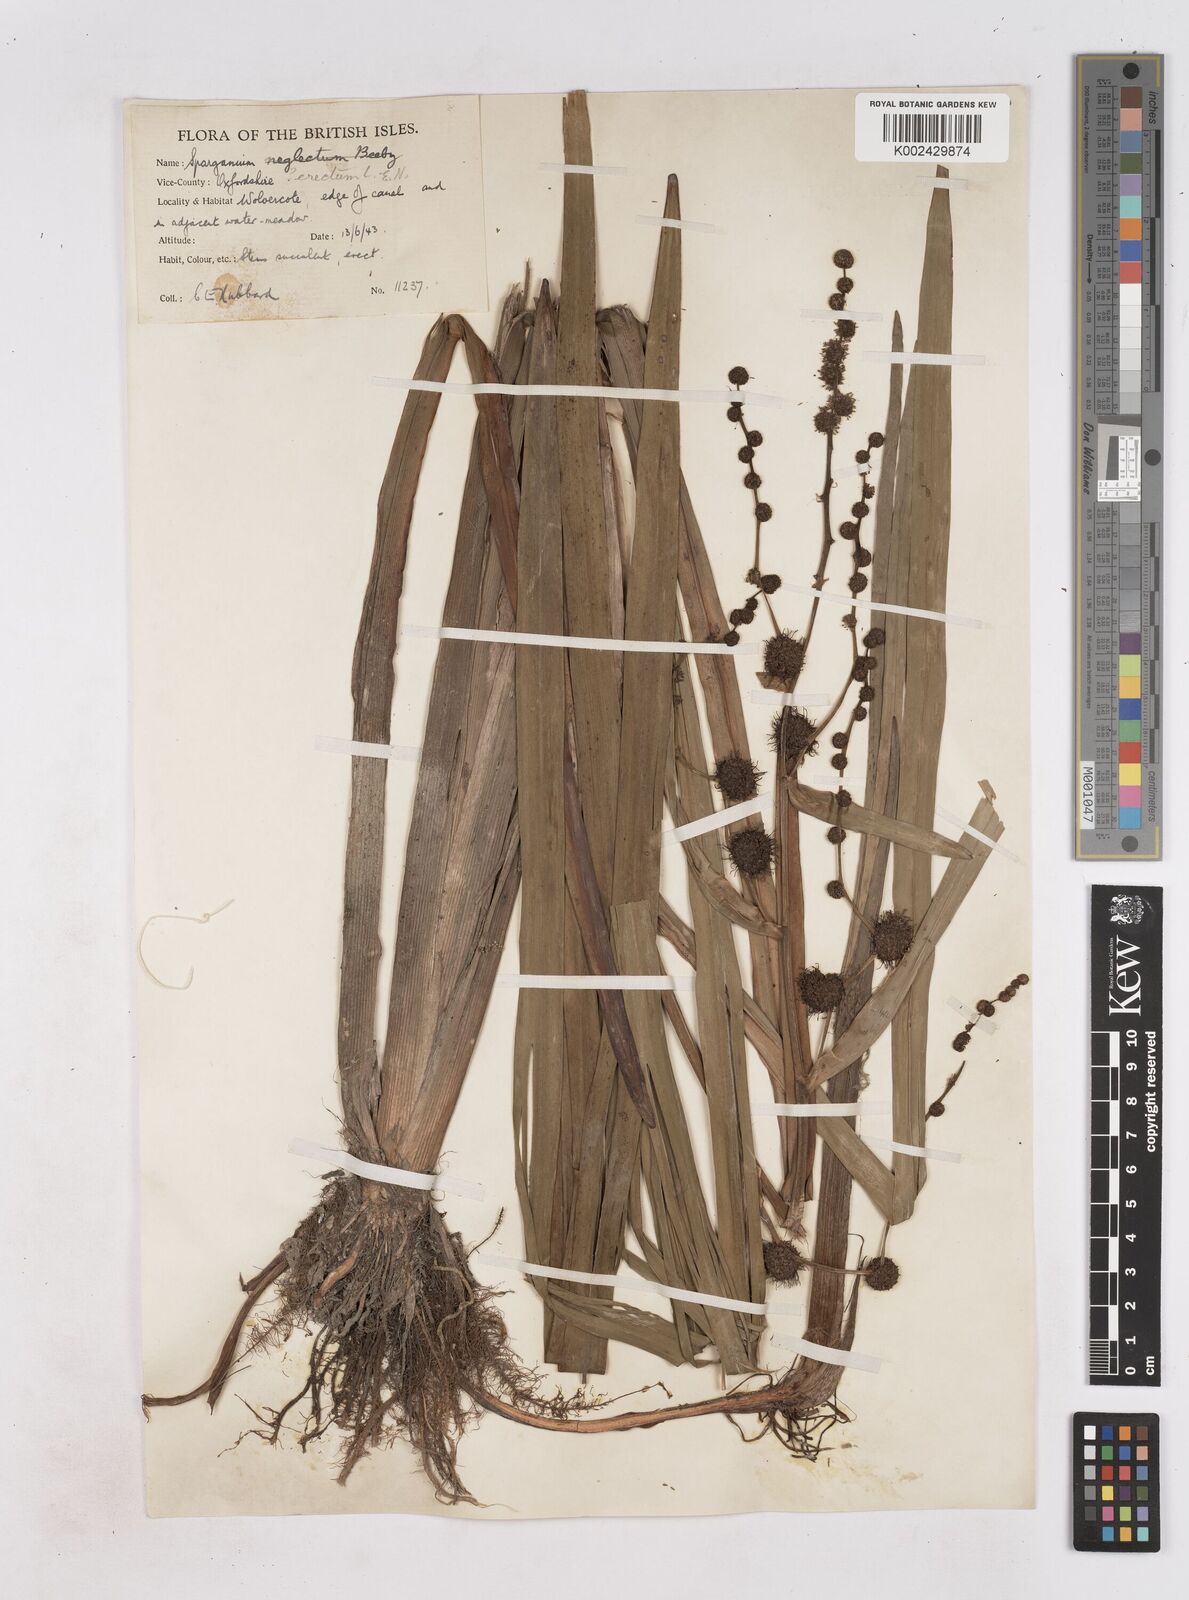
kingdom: Plantae
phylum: Tracheophyta
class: Liliopsida
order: Poales
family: Typhaceae
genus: Sparganium
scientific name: Sparganium erectum
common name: Branched bur-reed
